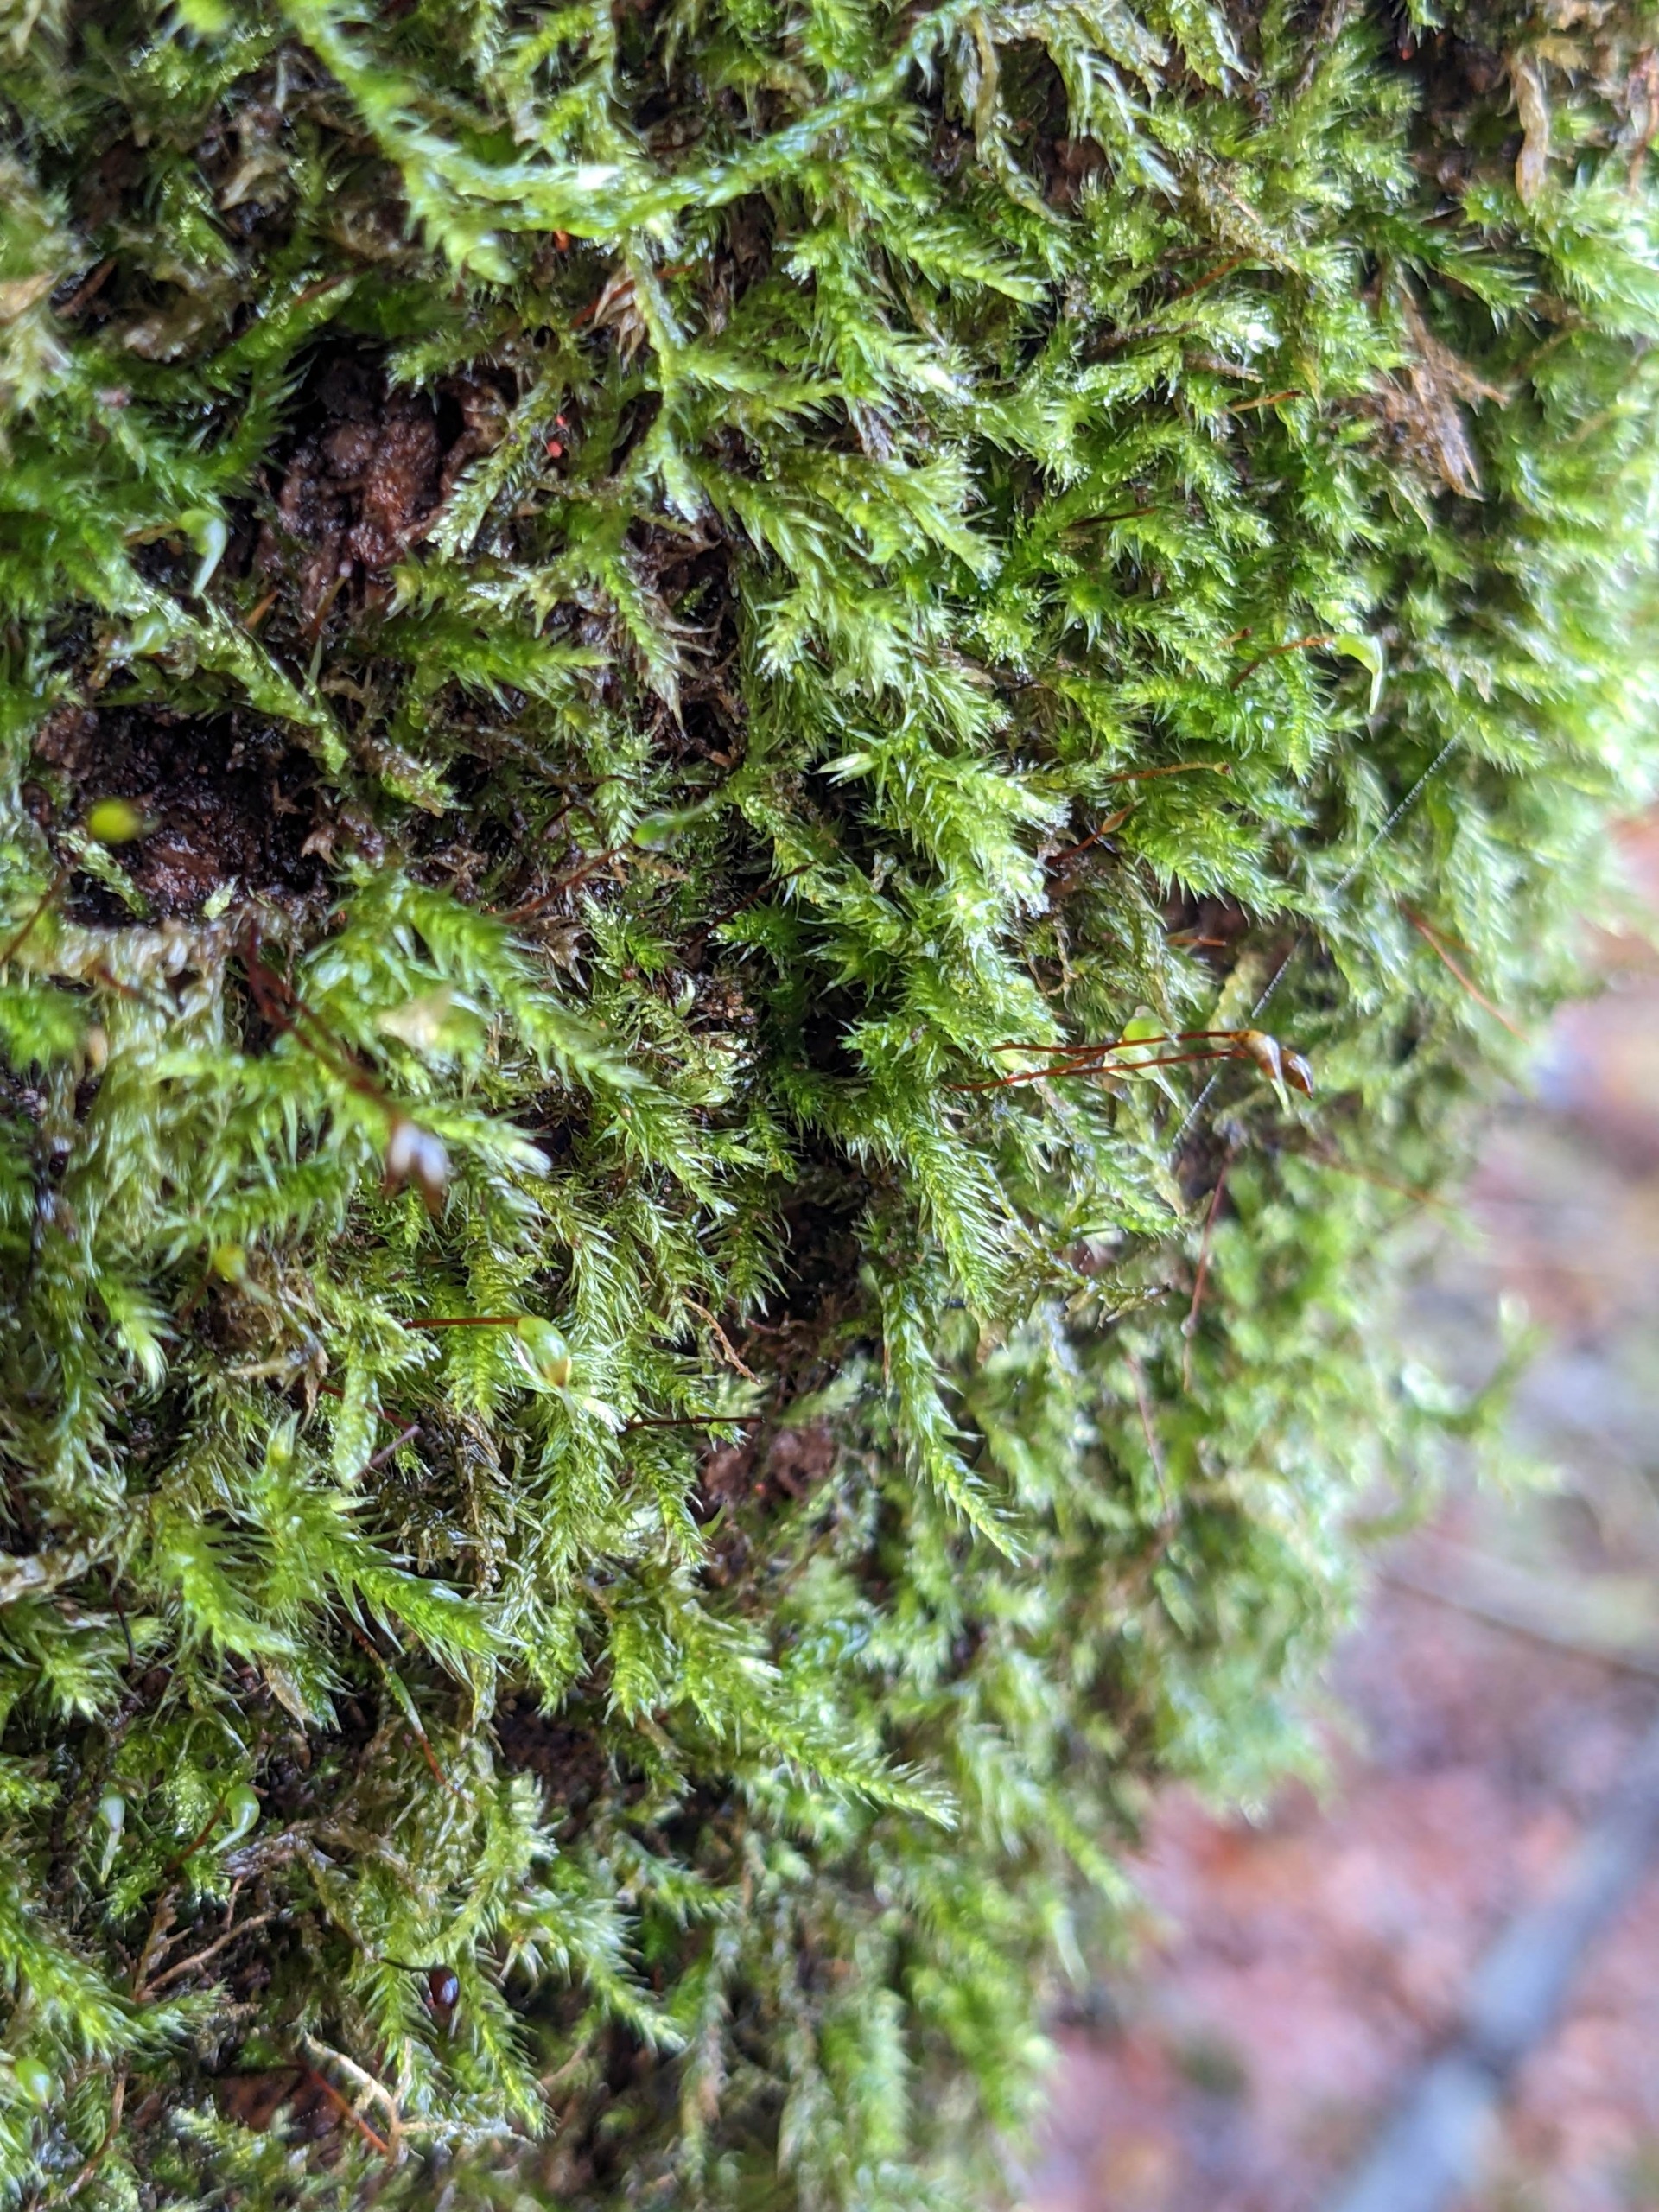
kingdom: Plantae
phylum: Bryophyta
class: Bryopsida
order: Hypnales
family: Brachytheciaceae
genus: Brachythecium
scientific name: Brachythecium salebrosum
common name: Skov-kortkapsel
